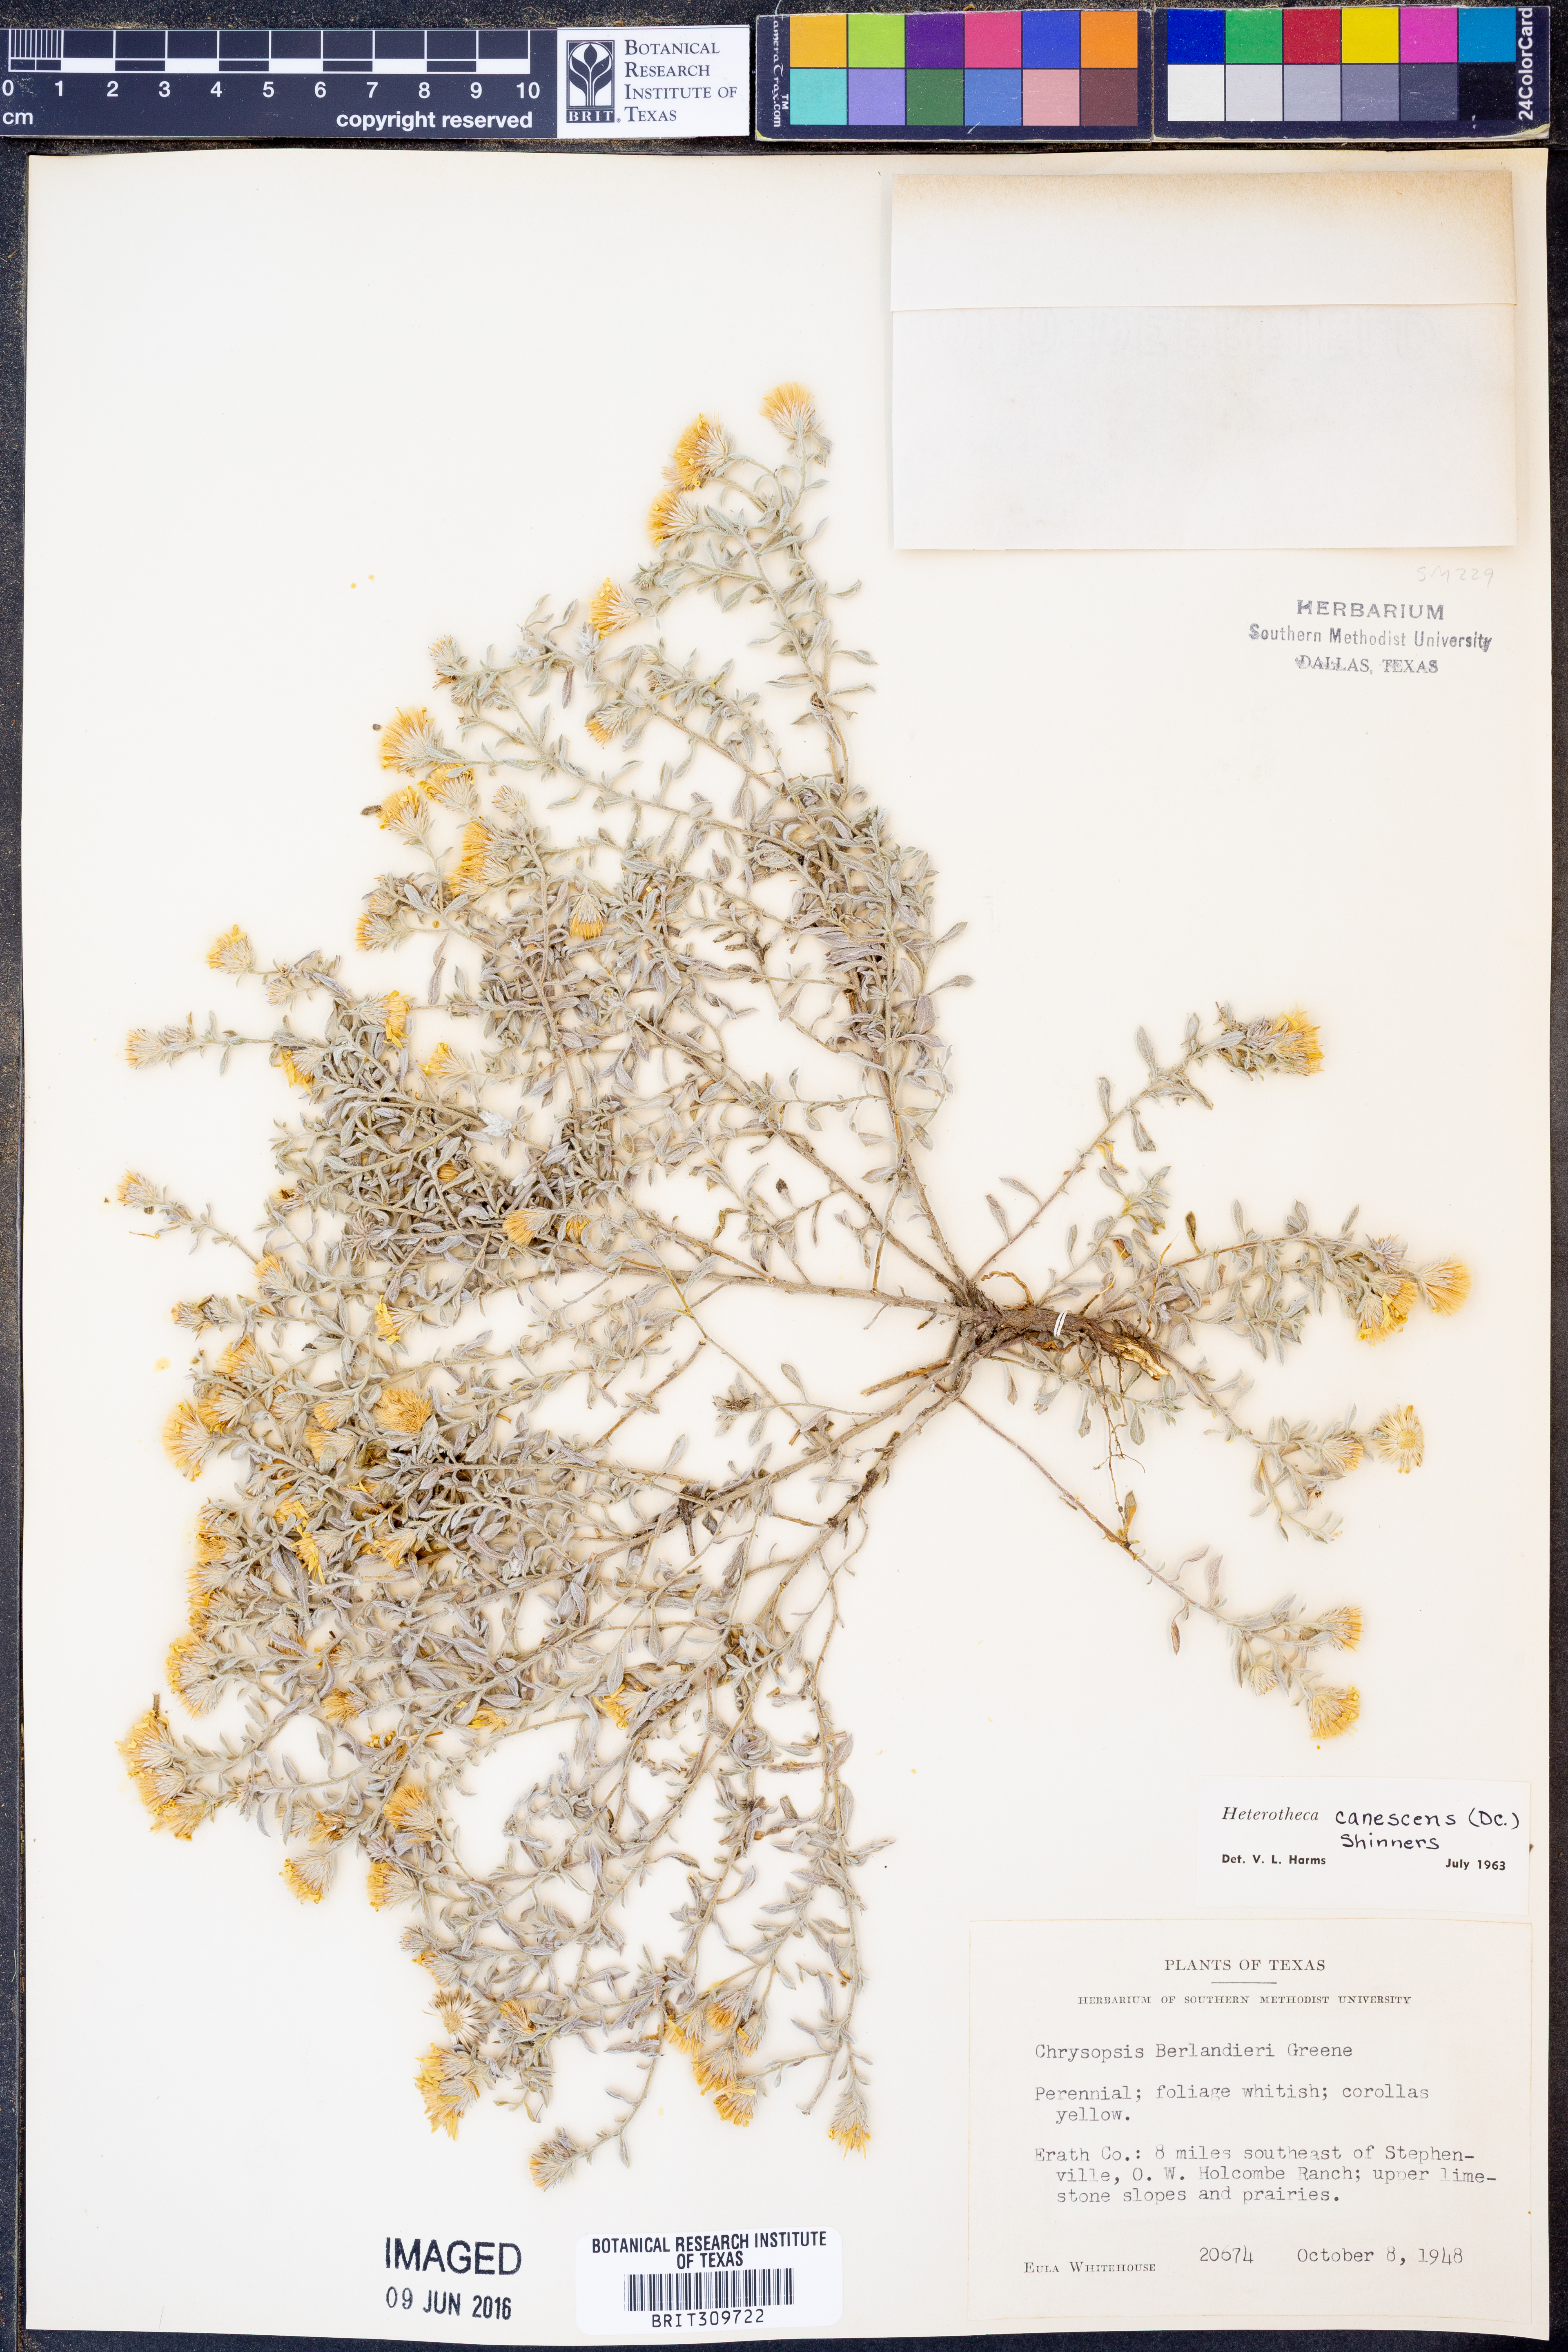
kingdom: Plantae
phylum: Tracheophyta
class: Magnoliopsida
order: Asterales
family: Asteraceae
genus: Heterotheca
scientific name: Heterotheca canescens
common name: Hoary golden-aster
